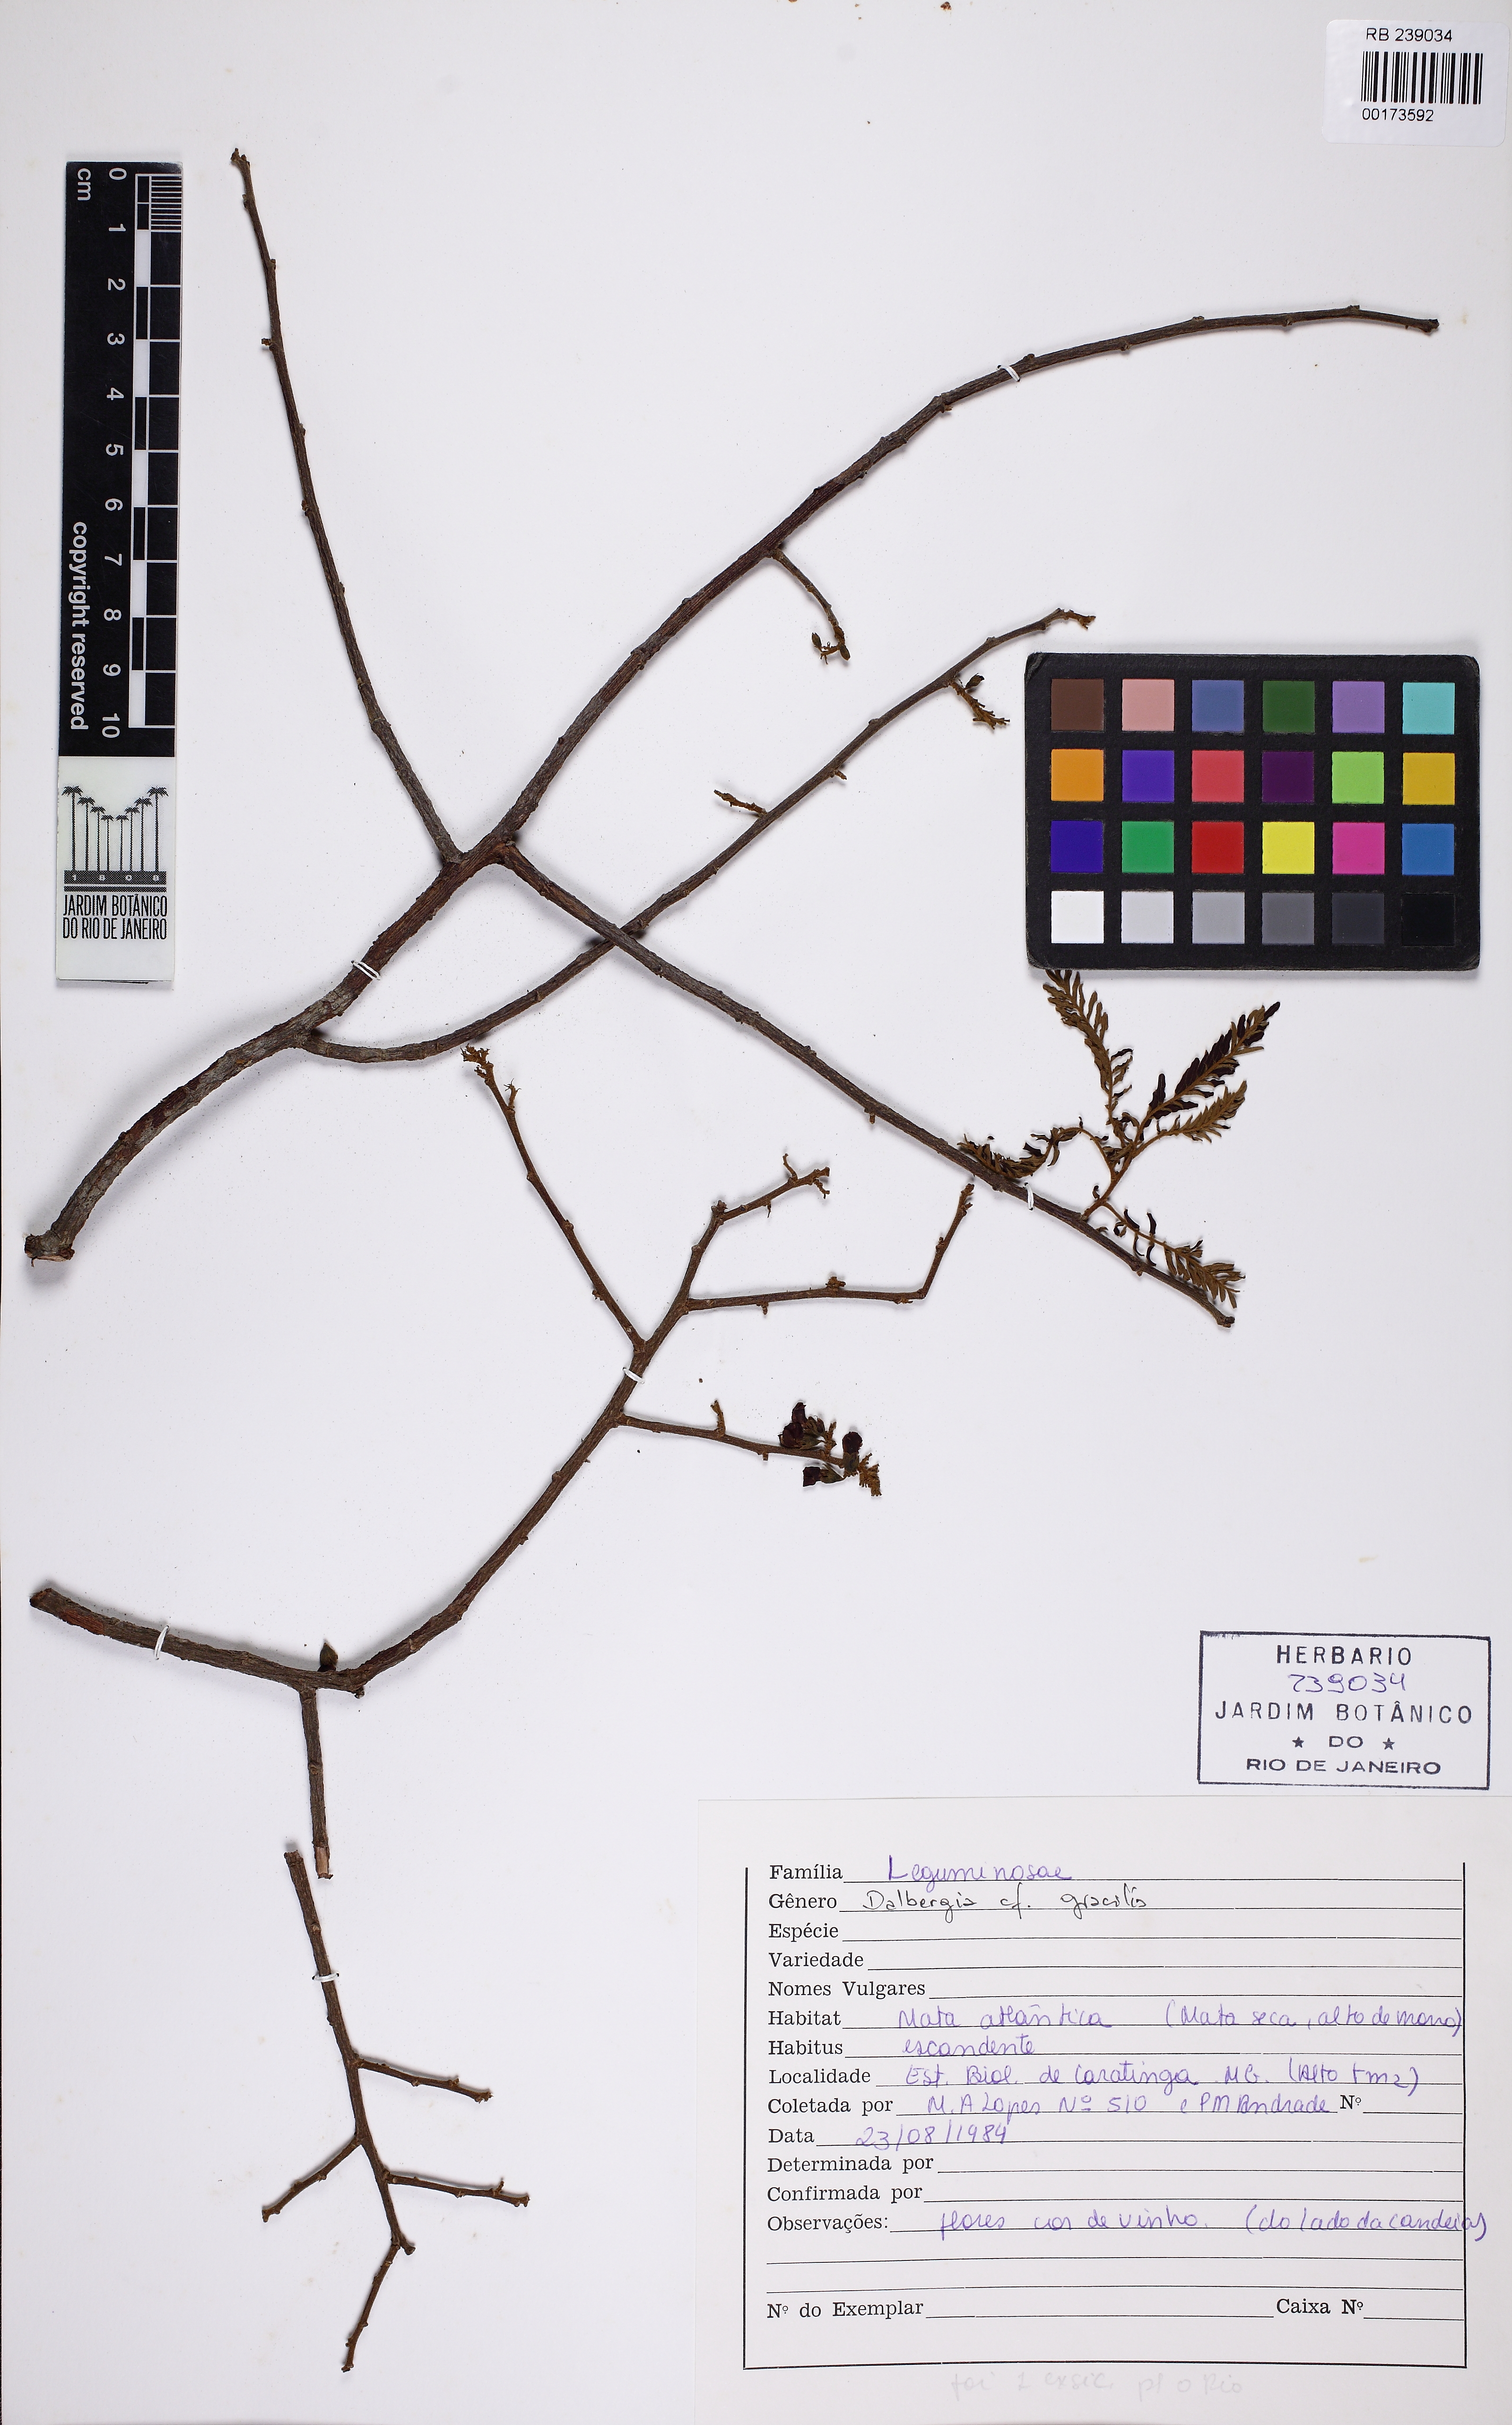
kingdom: Plantae
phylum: Tracheophyta
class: Magnoliopsida
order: Fabales
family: Fabaceae
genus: Dalbergia
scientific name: Dalbergia gracilis
